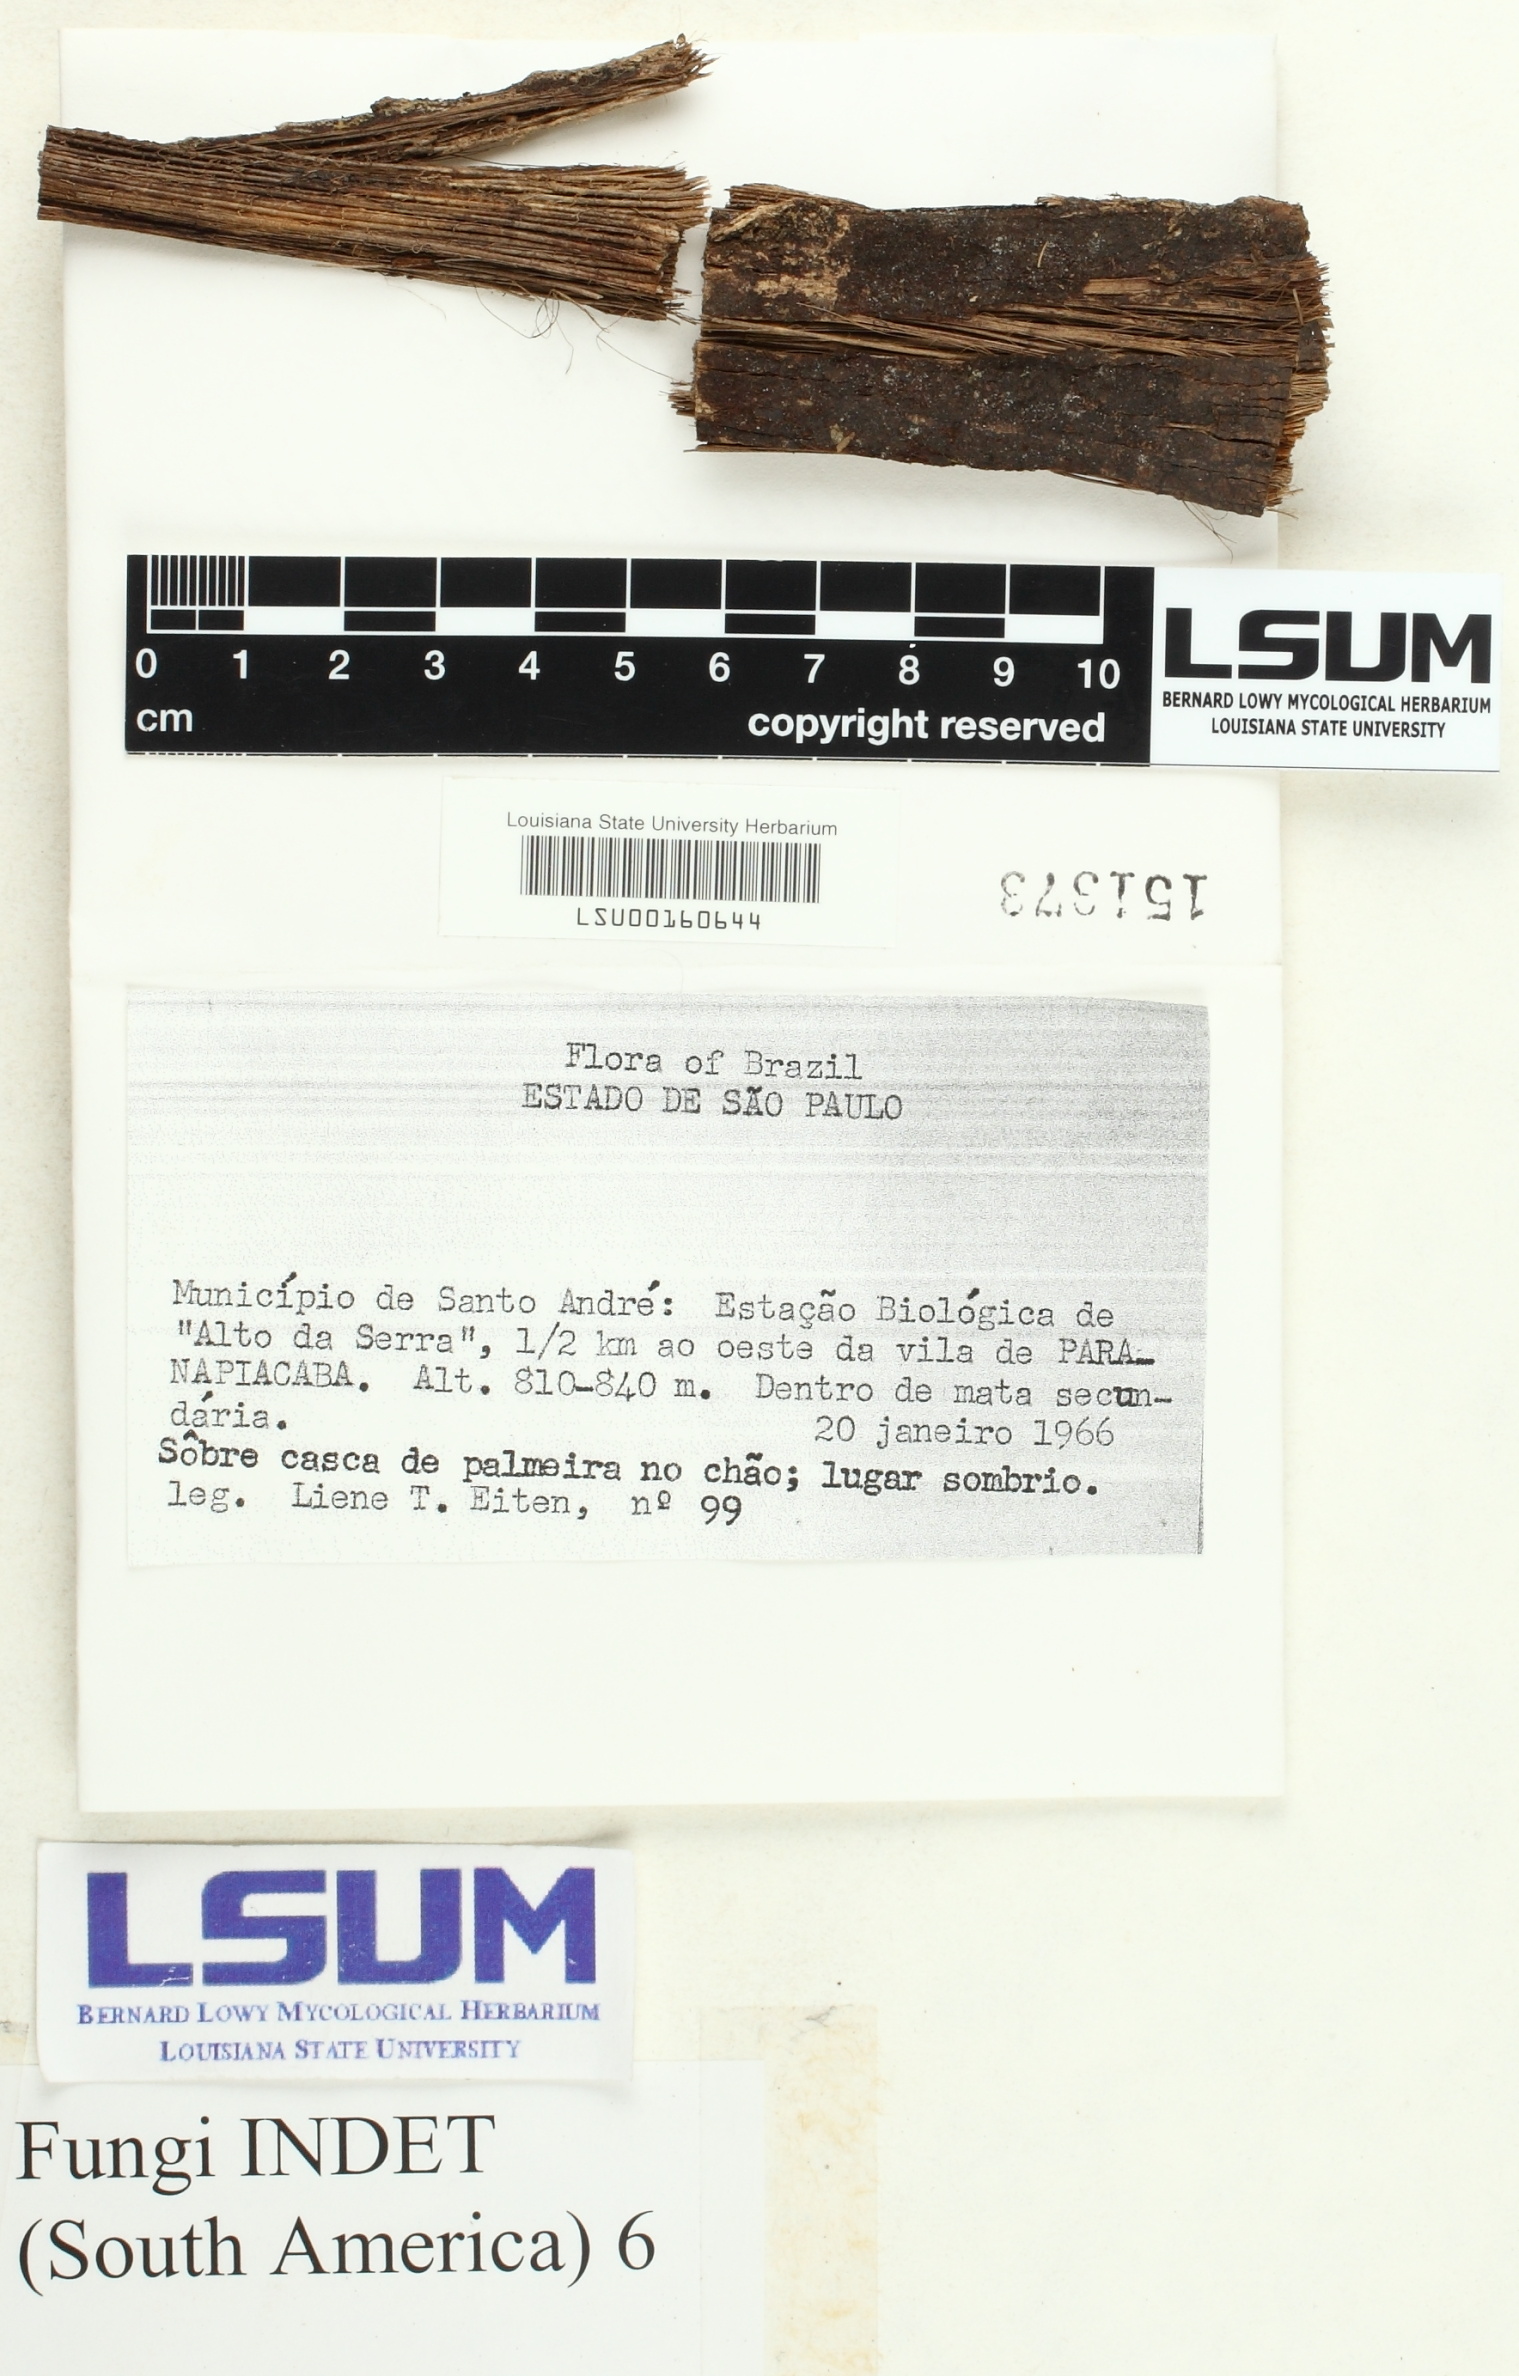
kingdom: Fungi
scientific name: Fungi
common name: Fungi
